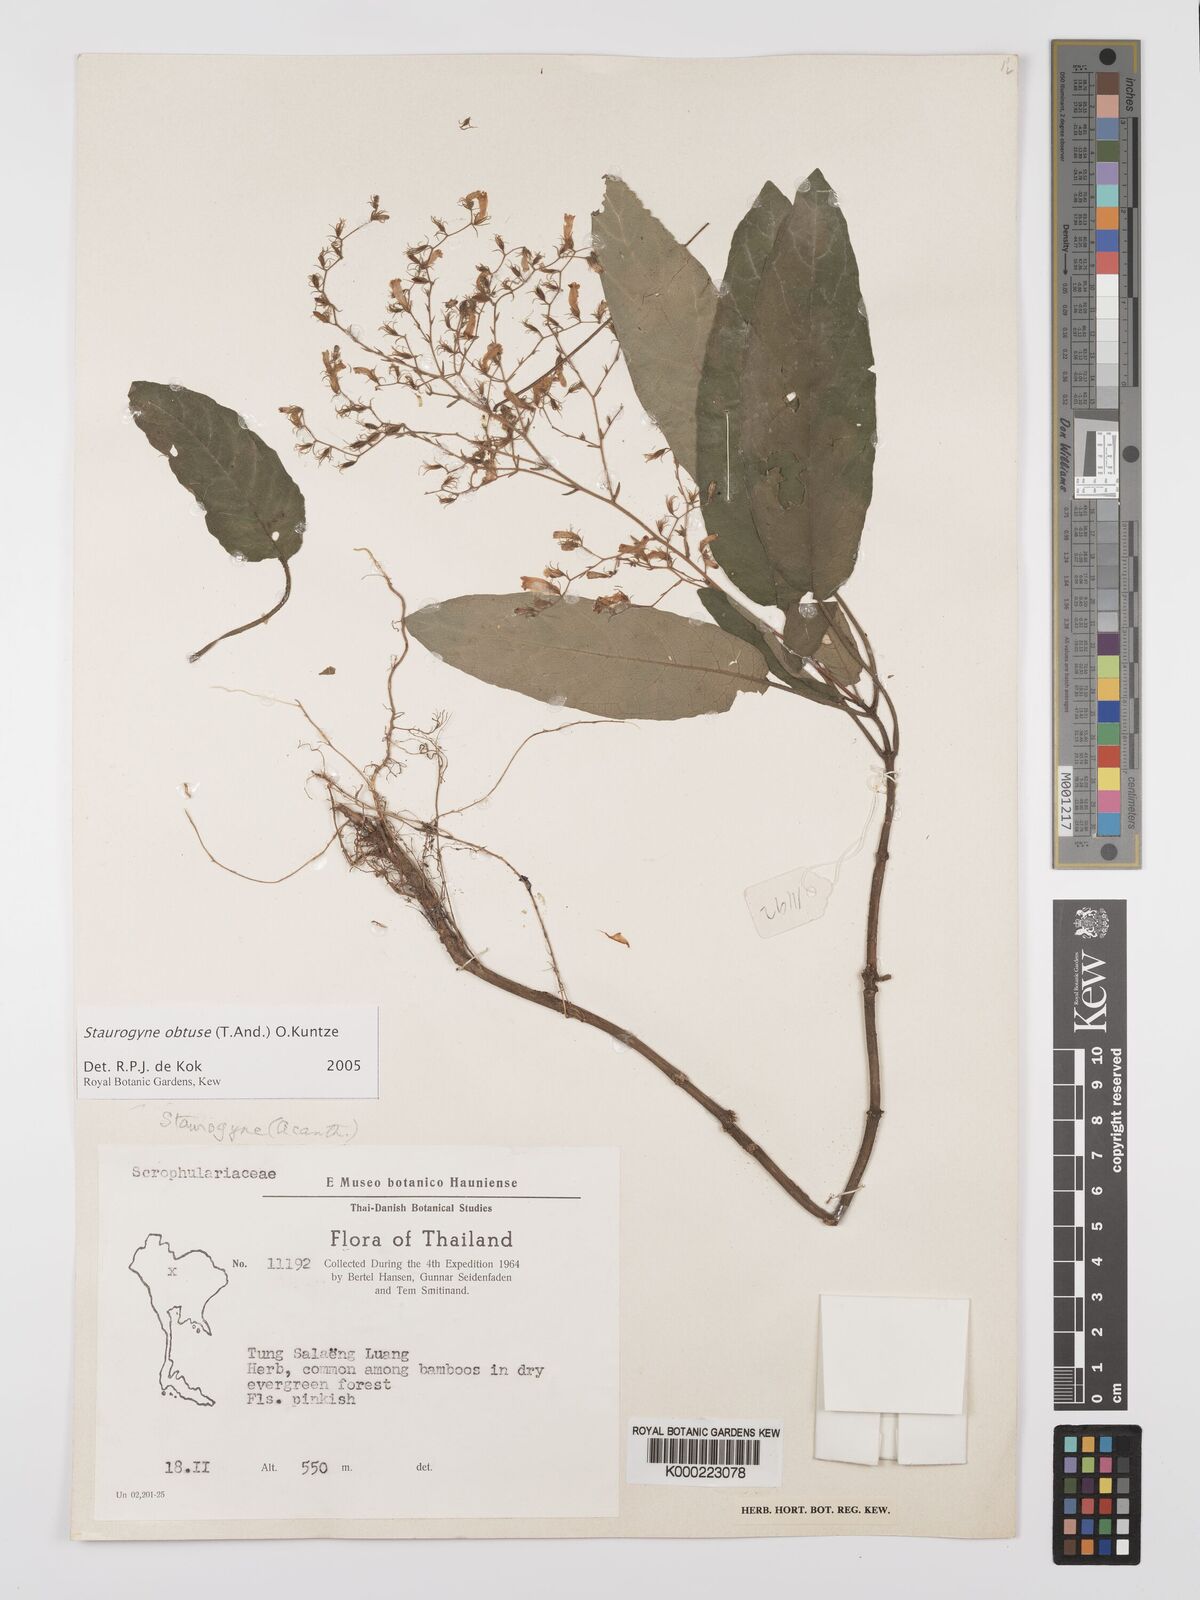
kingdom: Plantae
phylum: Tracheophyta
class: Magnoliopsida
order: Lamiales
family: Acanthaceae
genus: Staurogyne
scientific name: Staurogyne
